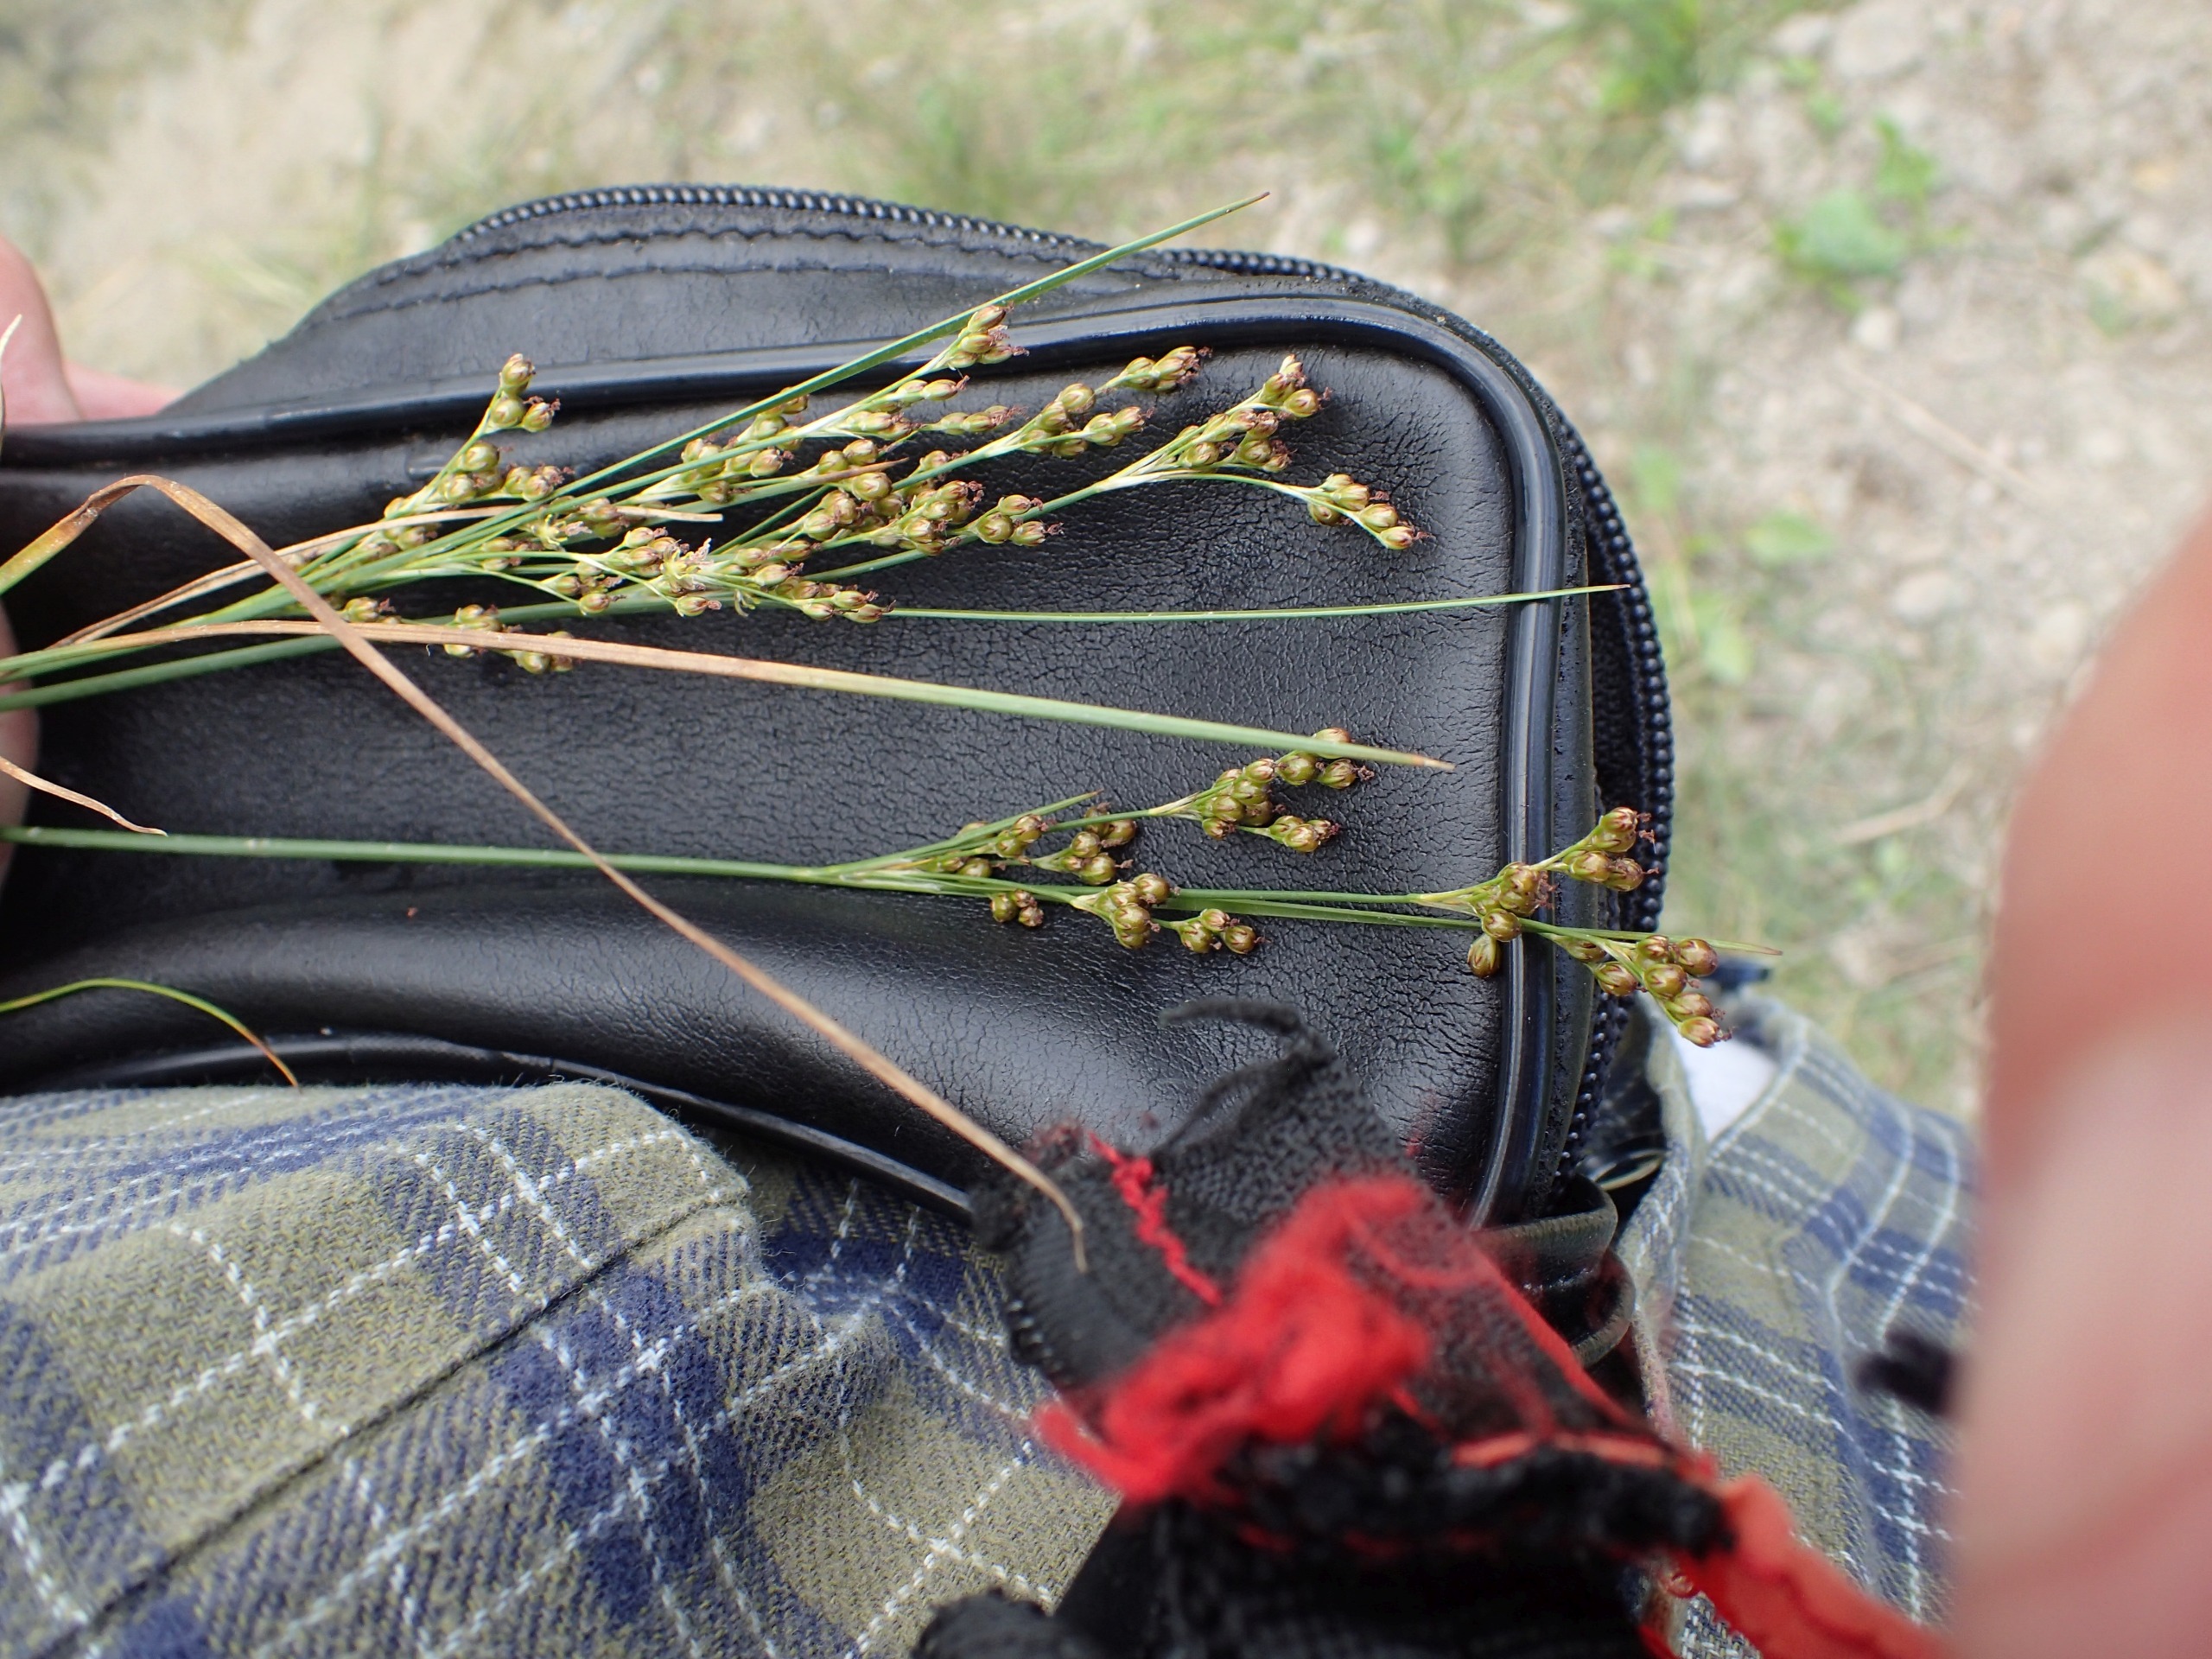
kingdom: Plantae
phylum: Tracheophyta
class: Liliopsida
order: Poales
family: Juncaceae
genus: Juncus
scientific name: Juncus compressus
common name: Fladstrået siv
